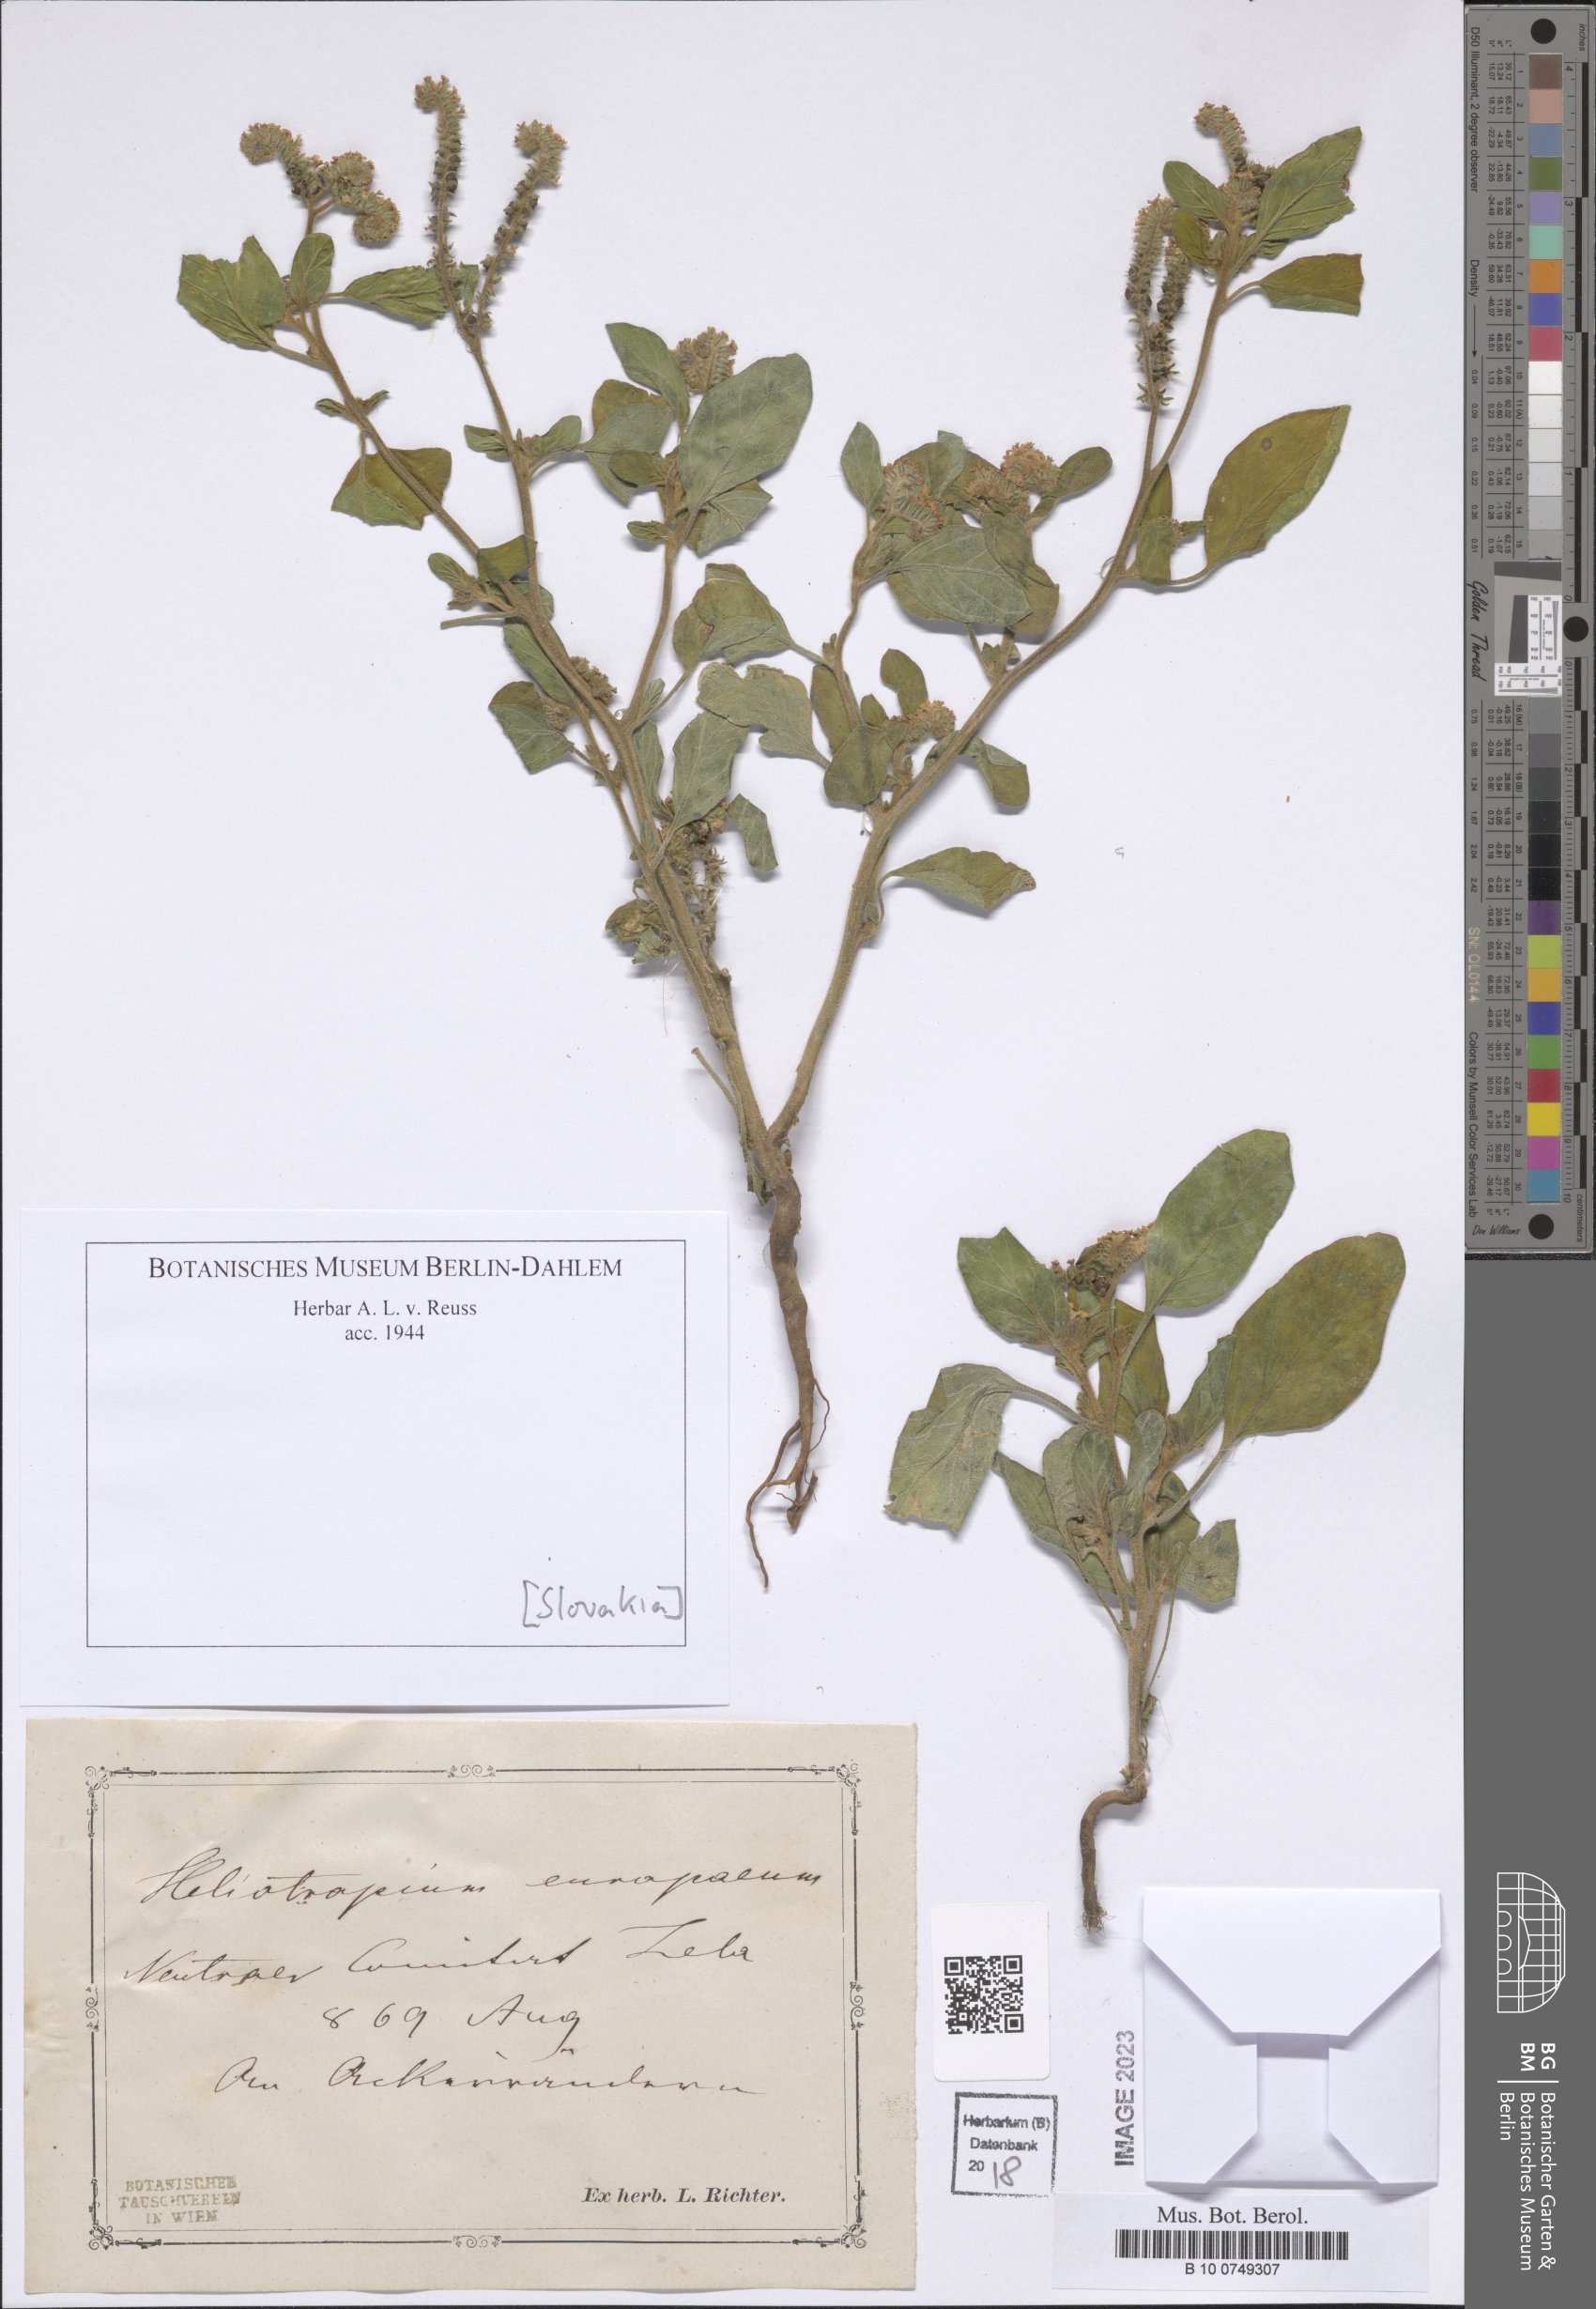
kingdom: Plantae
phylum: Tracheophyta
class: Magnoliopsida
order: Boraginales
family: Heliotropiaceae
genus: Heliotropium
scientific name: Heliotropium europaeum
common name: European heliotrope
